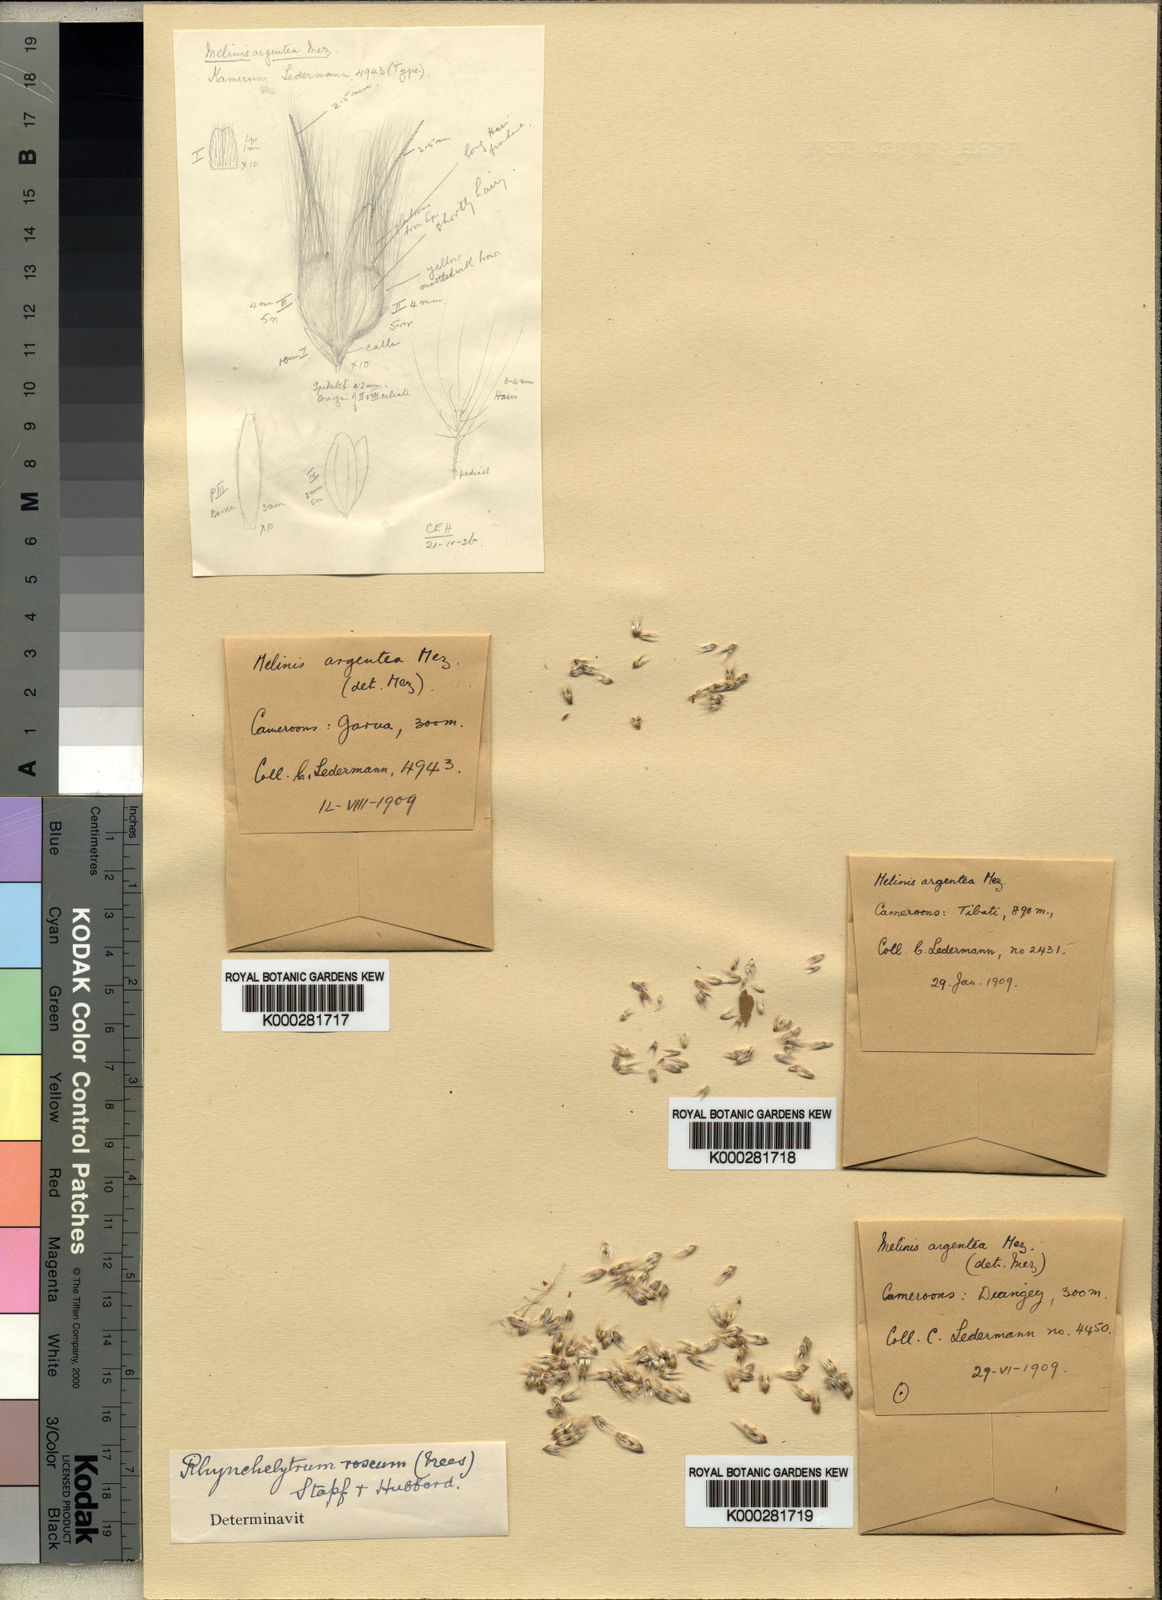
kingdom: Plantae
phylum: Tracheophyta
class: Liliopsida
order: Poales
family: Poaceae
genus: Melinis
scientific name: Melinis repens
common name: Rose natal grass
